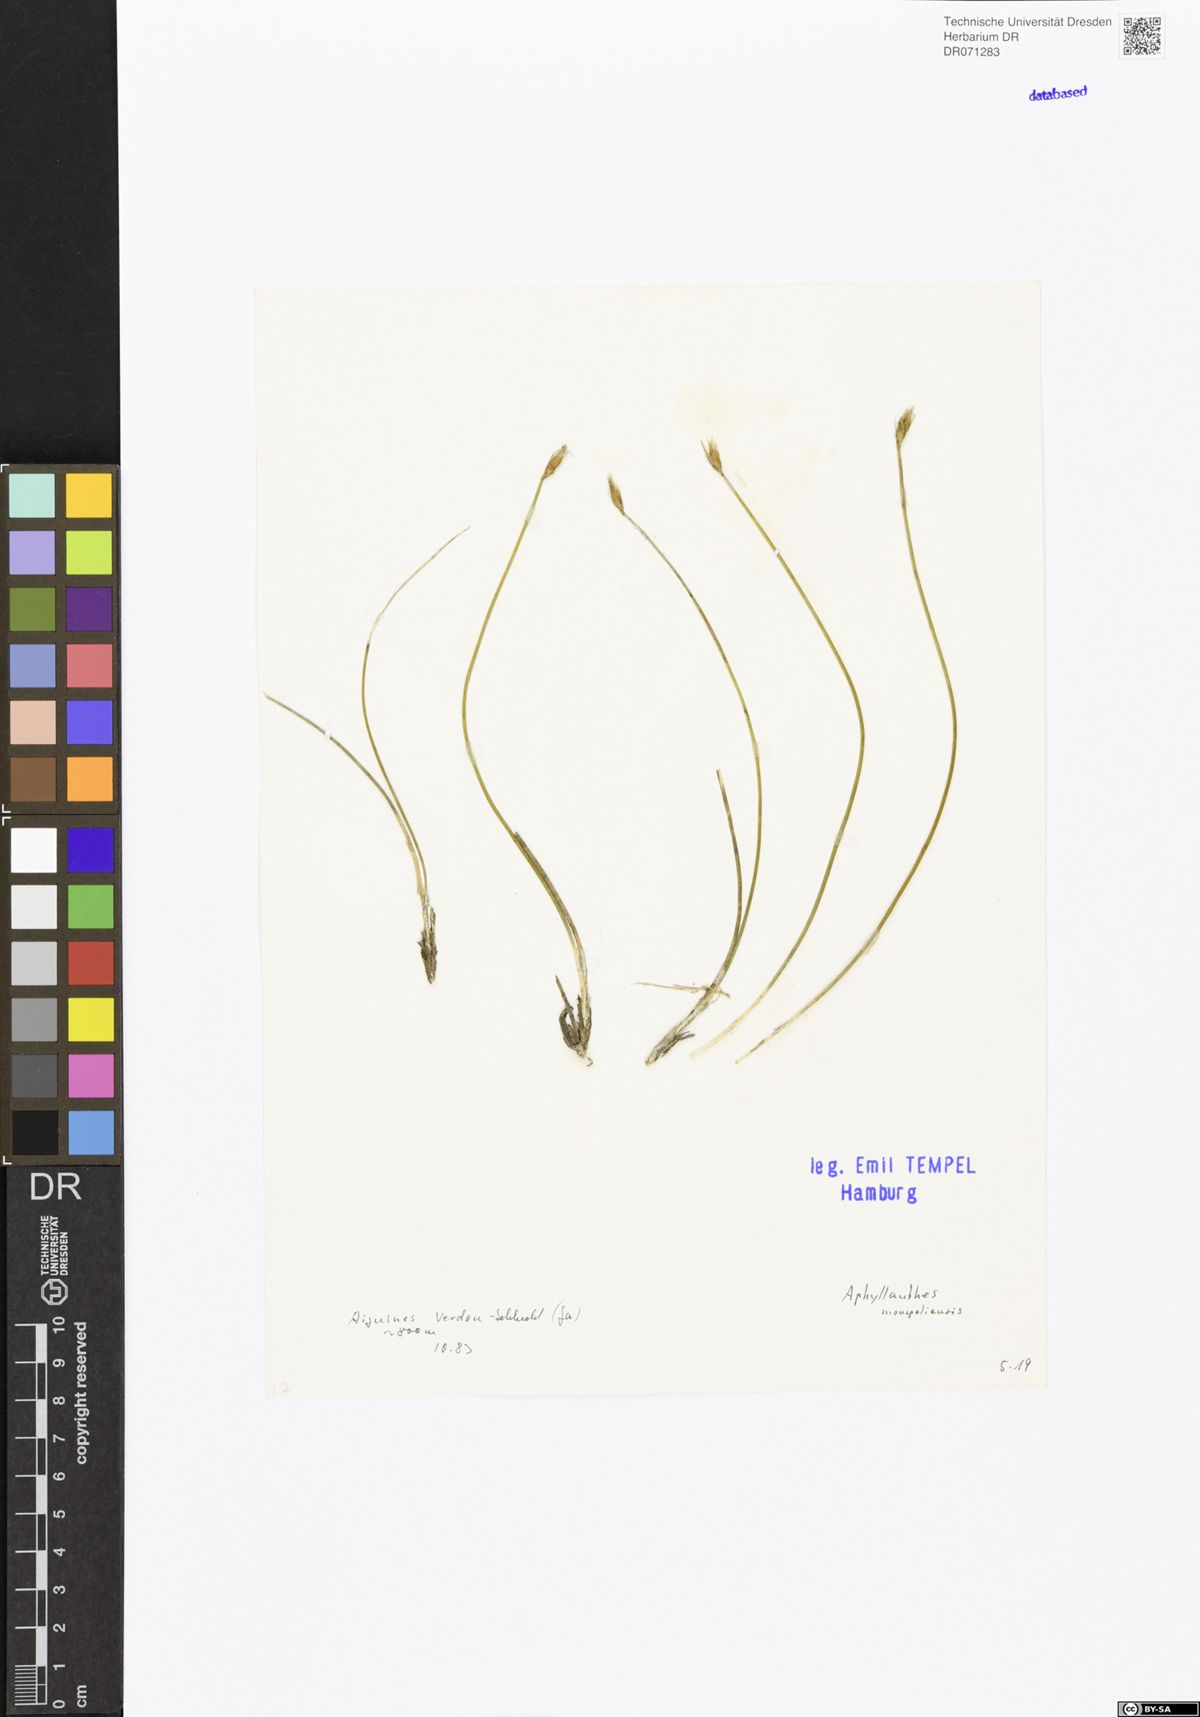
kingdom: Plantae
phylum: Tracheophyta
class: Liliopsida
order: Asparagales
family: Asparagaceae
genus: Aphyllanthes
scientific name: Aphyllanthes monspeliensis
